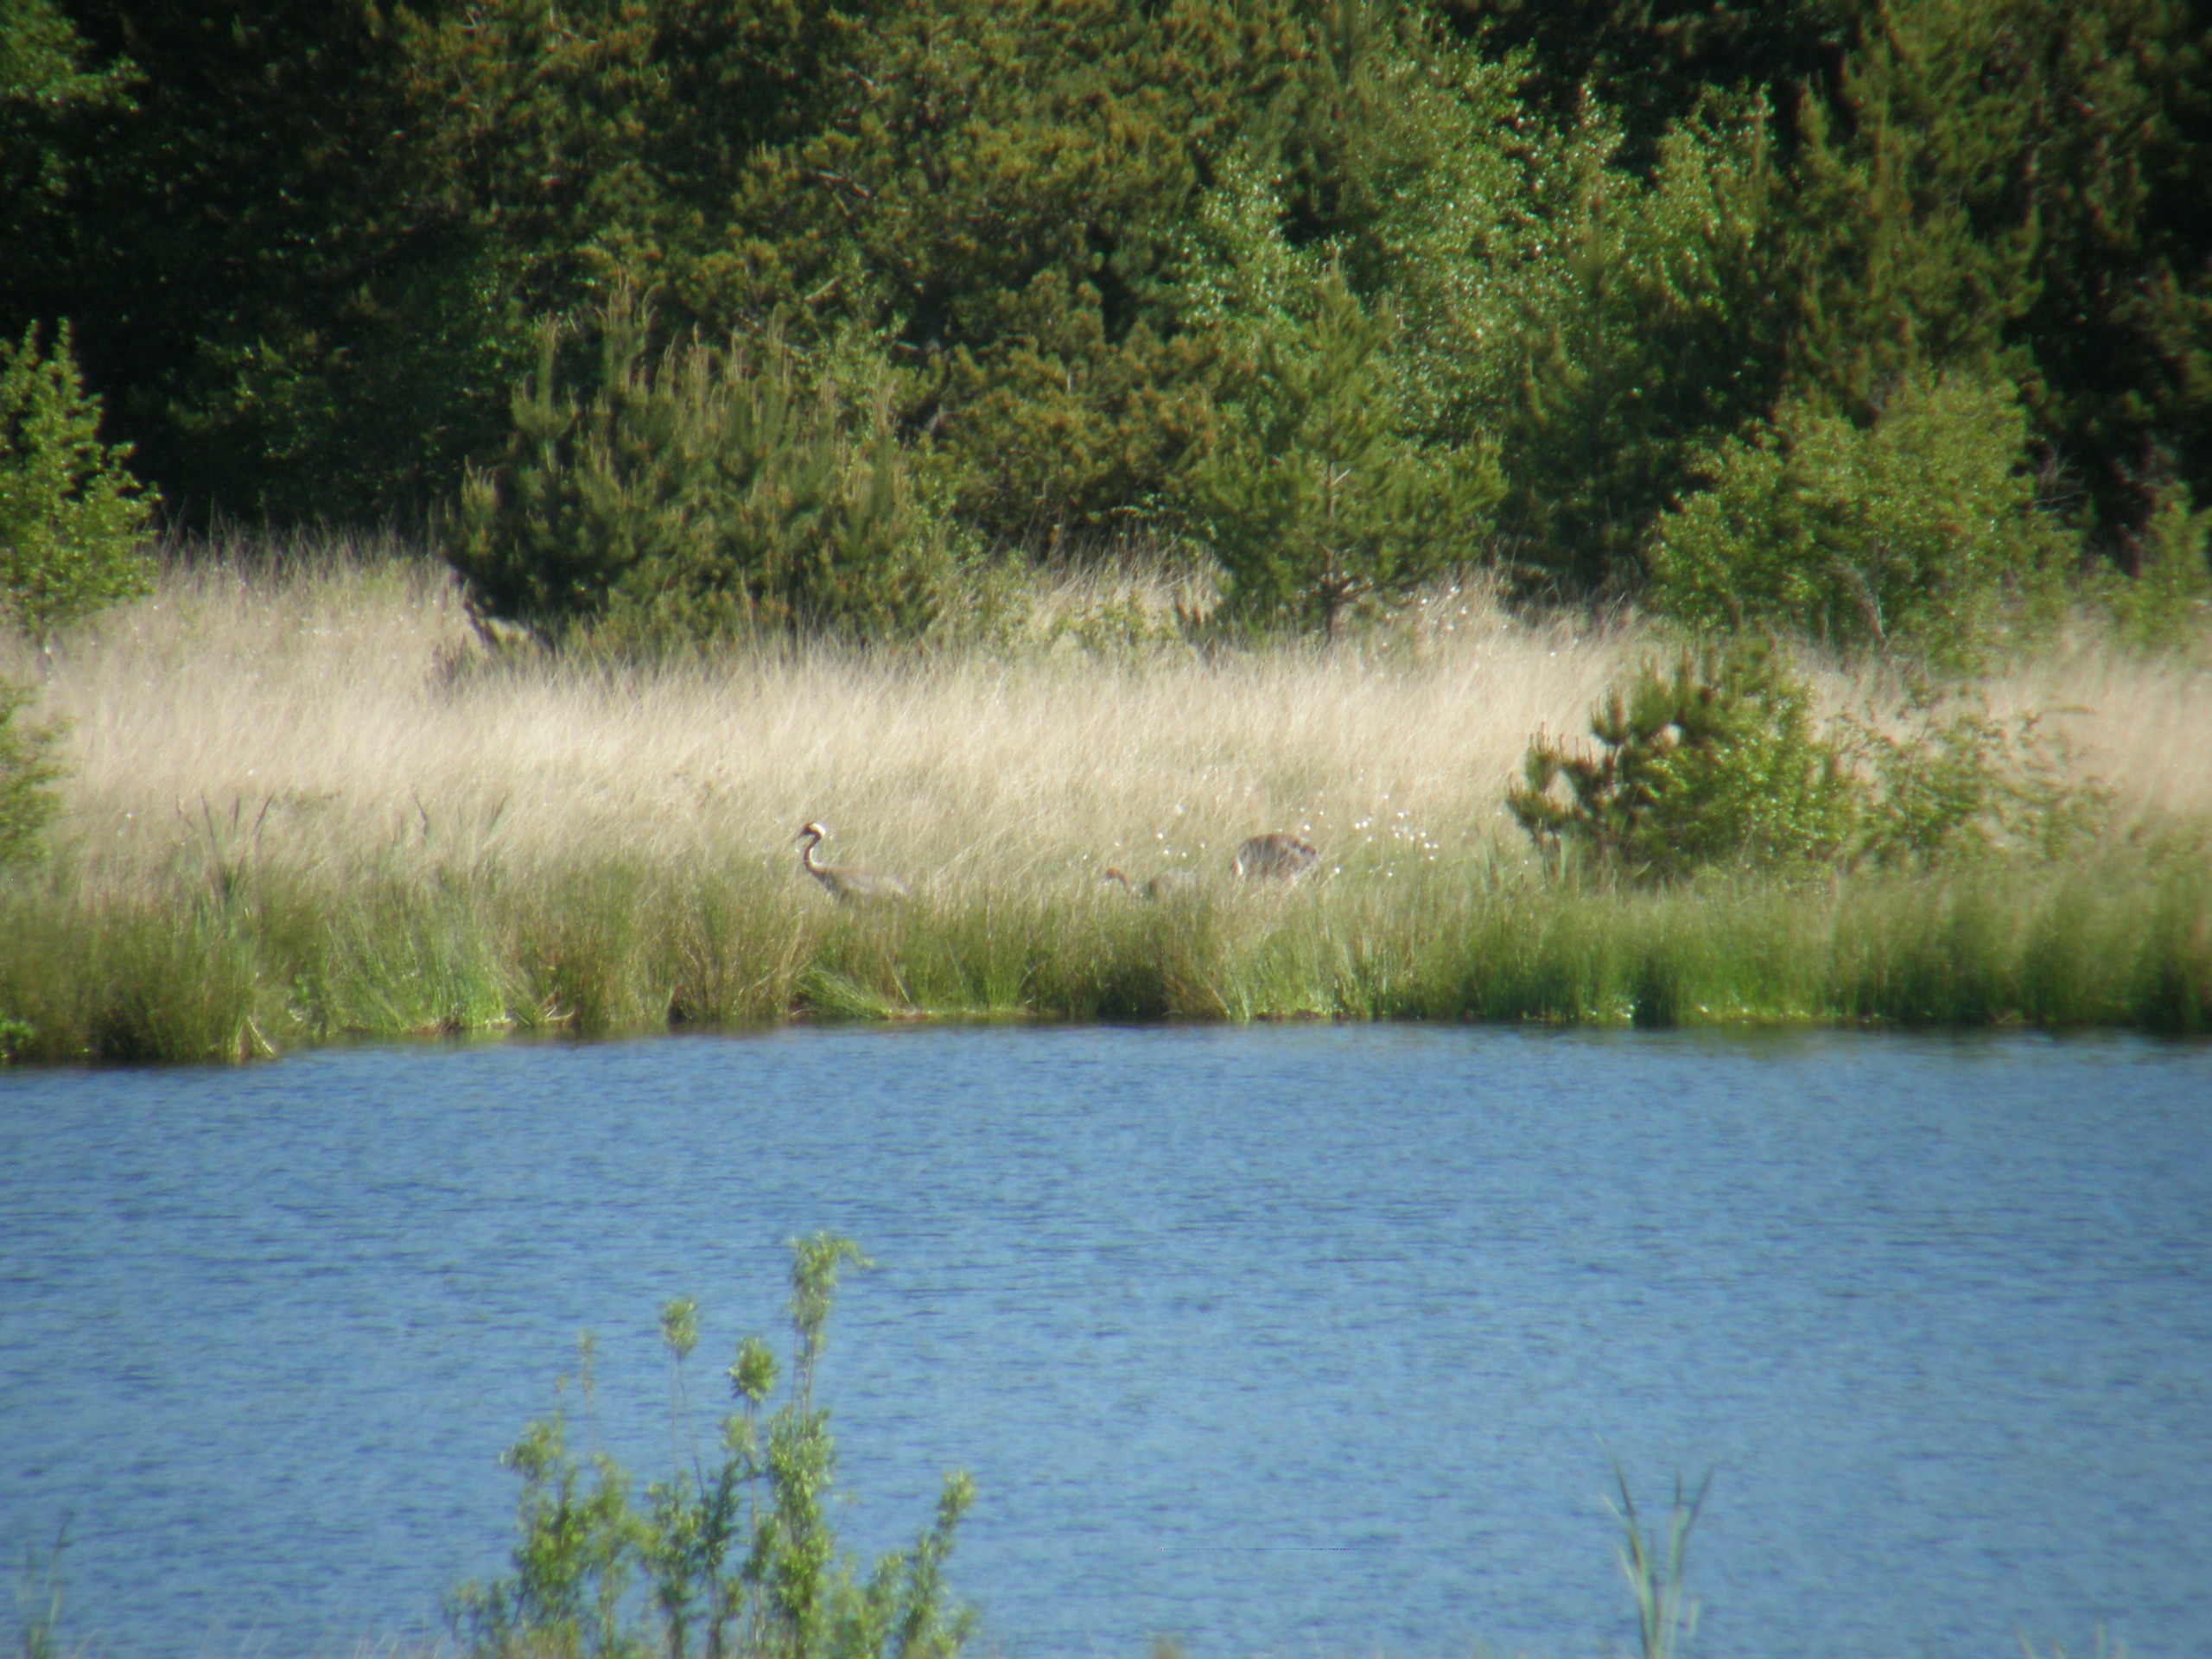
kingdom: Animalia
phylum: Chordata
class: Aves
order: Gruiformes
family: Gruidae
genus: Grus
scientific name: Grus grus
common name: Trane
